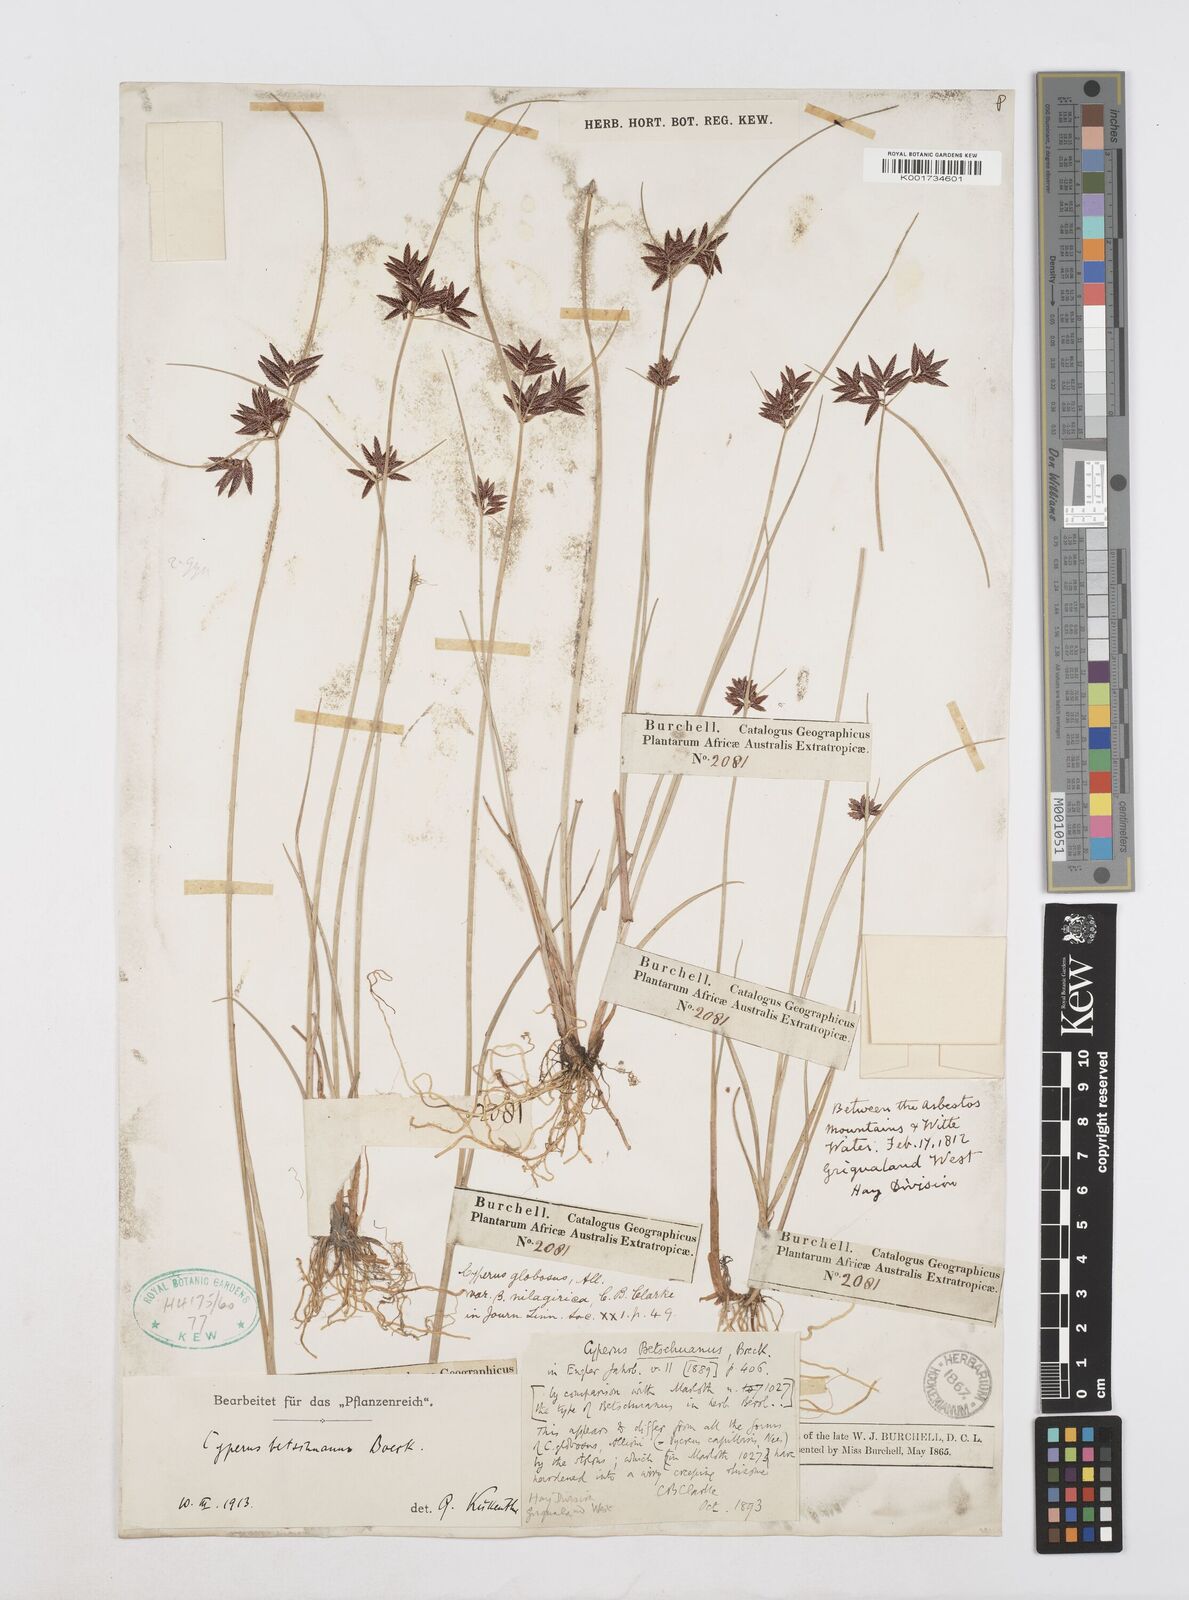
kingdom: Plantae
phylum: Tracheophyta
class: Liliopsida
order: Poales
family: Cyperaceae
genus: Cyperus
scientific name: Cyperus aethiops
